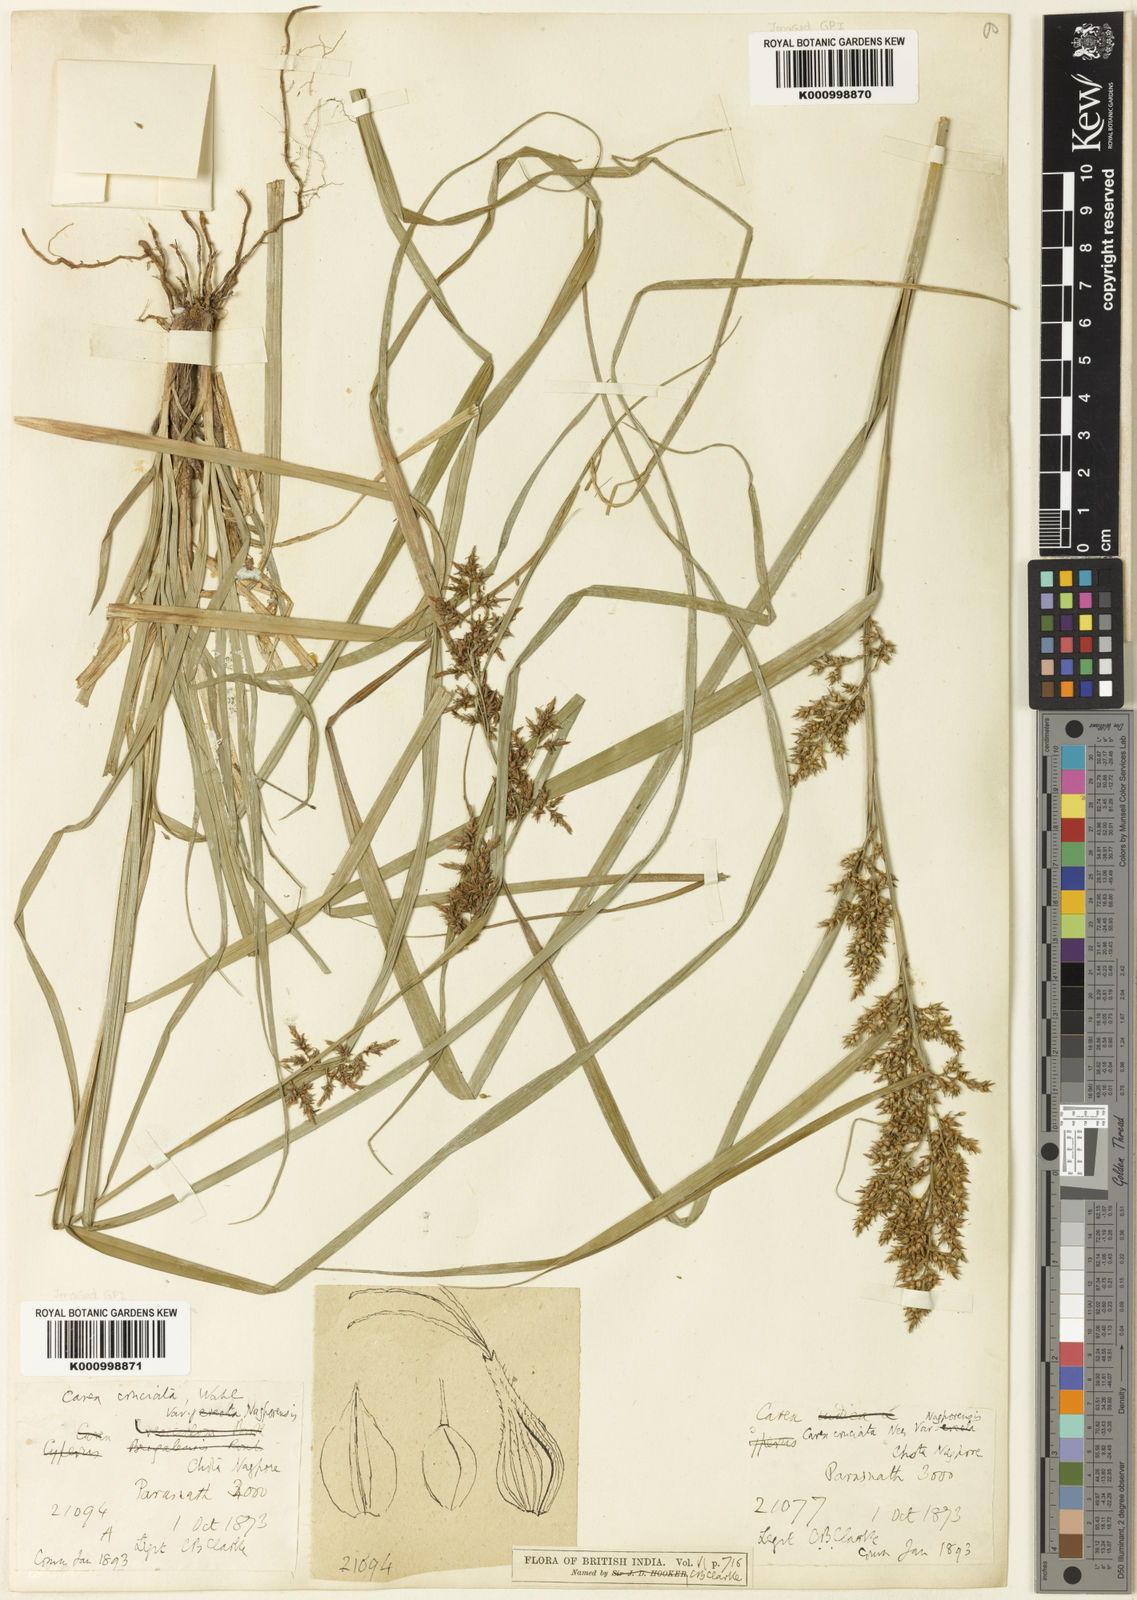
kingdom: Plantae
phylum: Tracheophyta
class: Liliopsida
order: Poales
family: Cyperaceae
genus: Carex
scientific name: Carex cruciata
